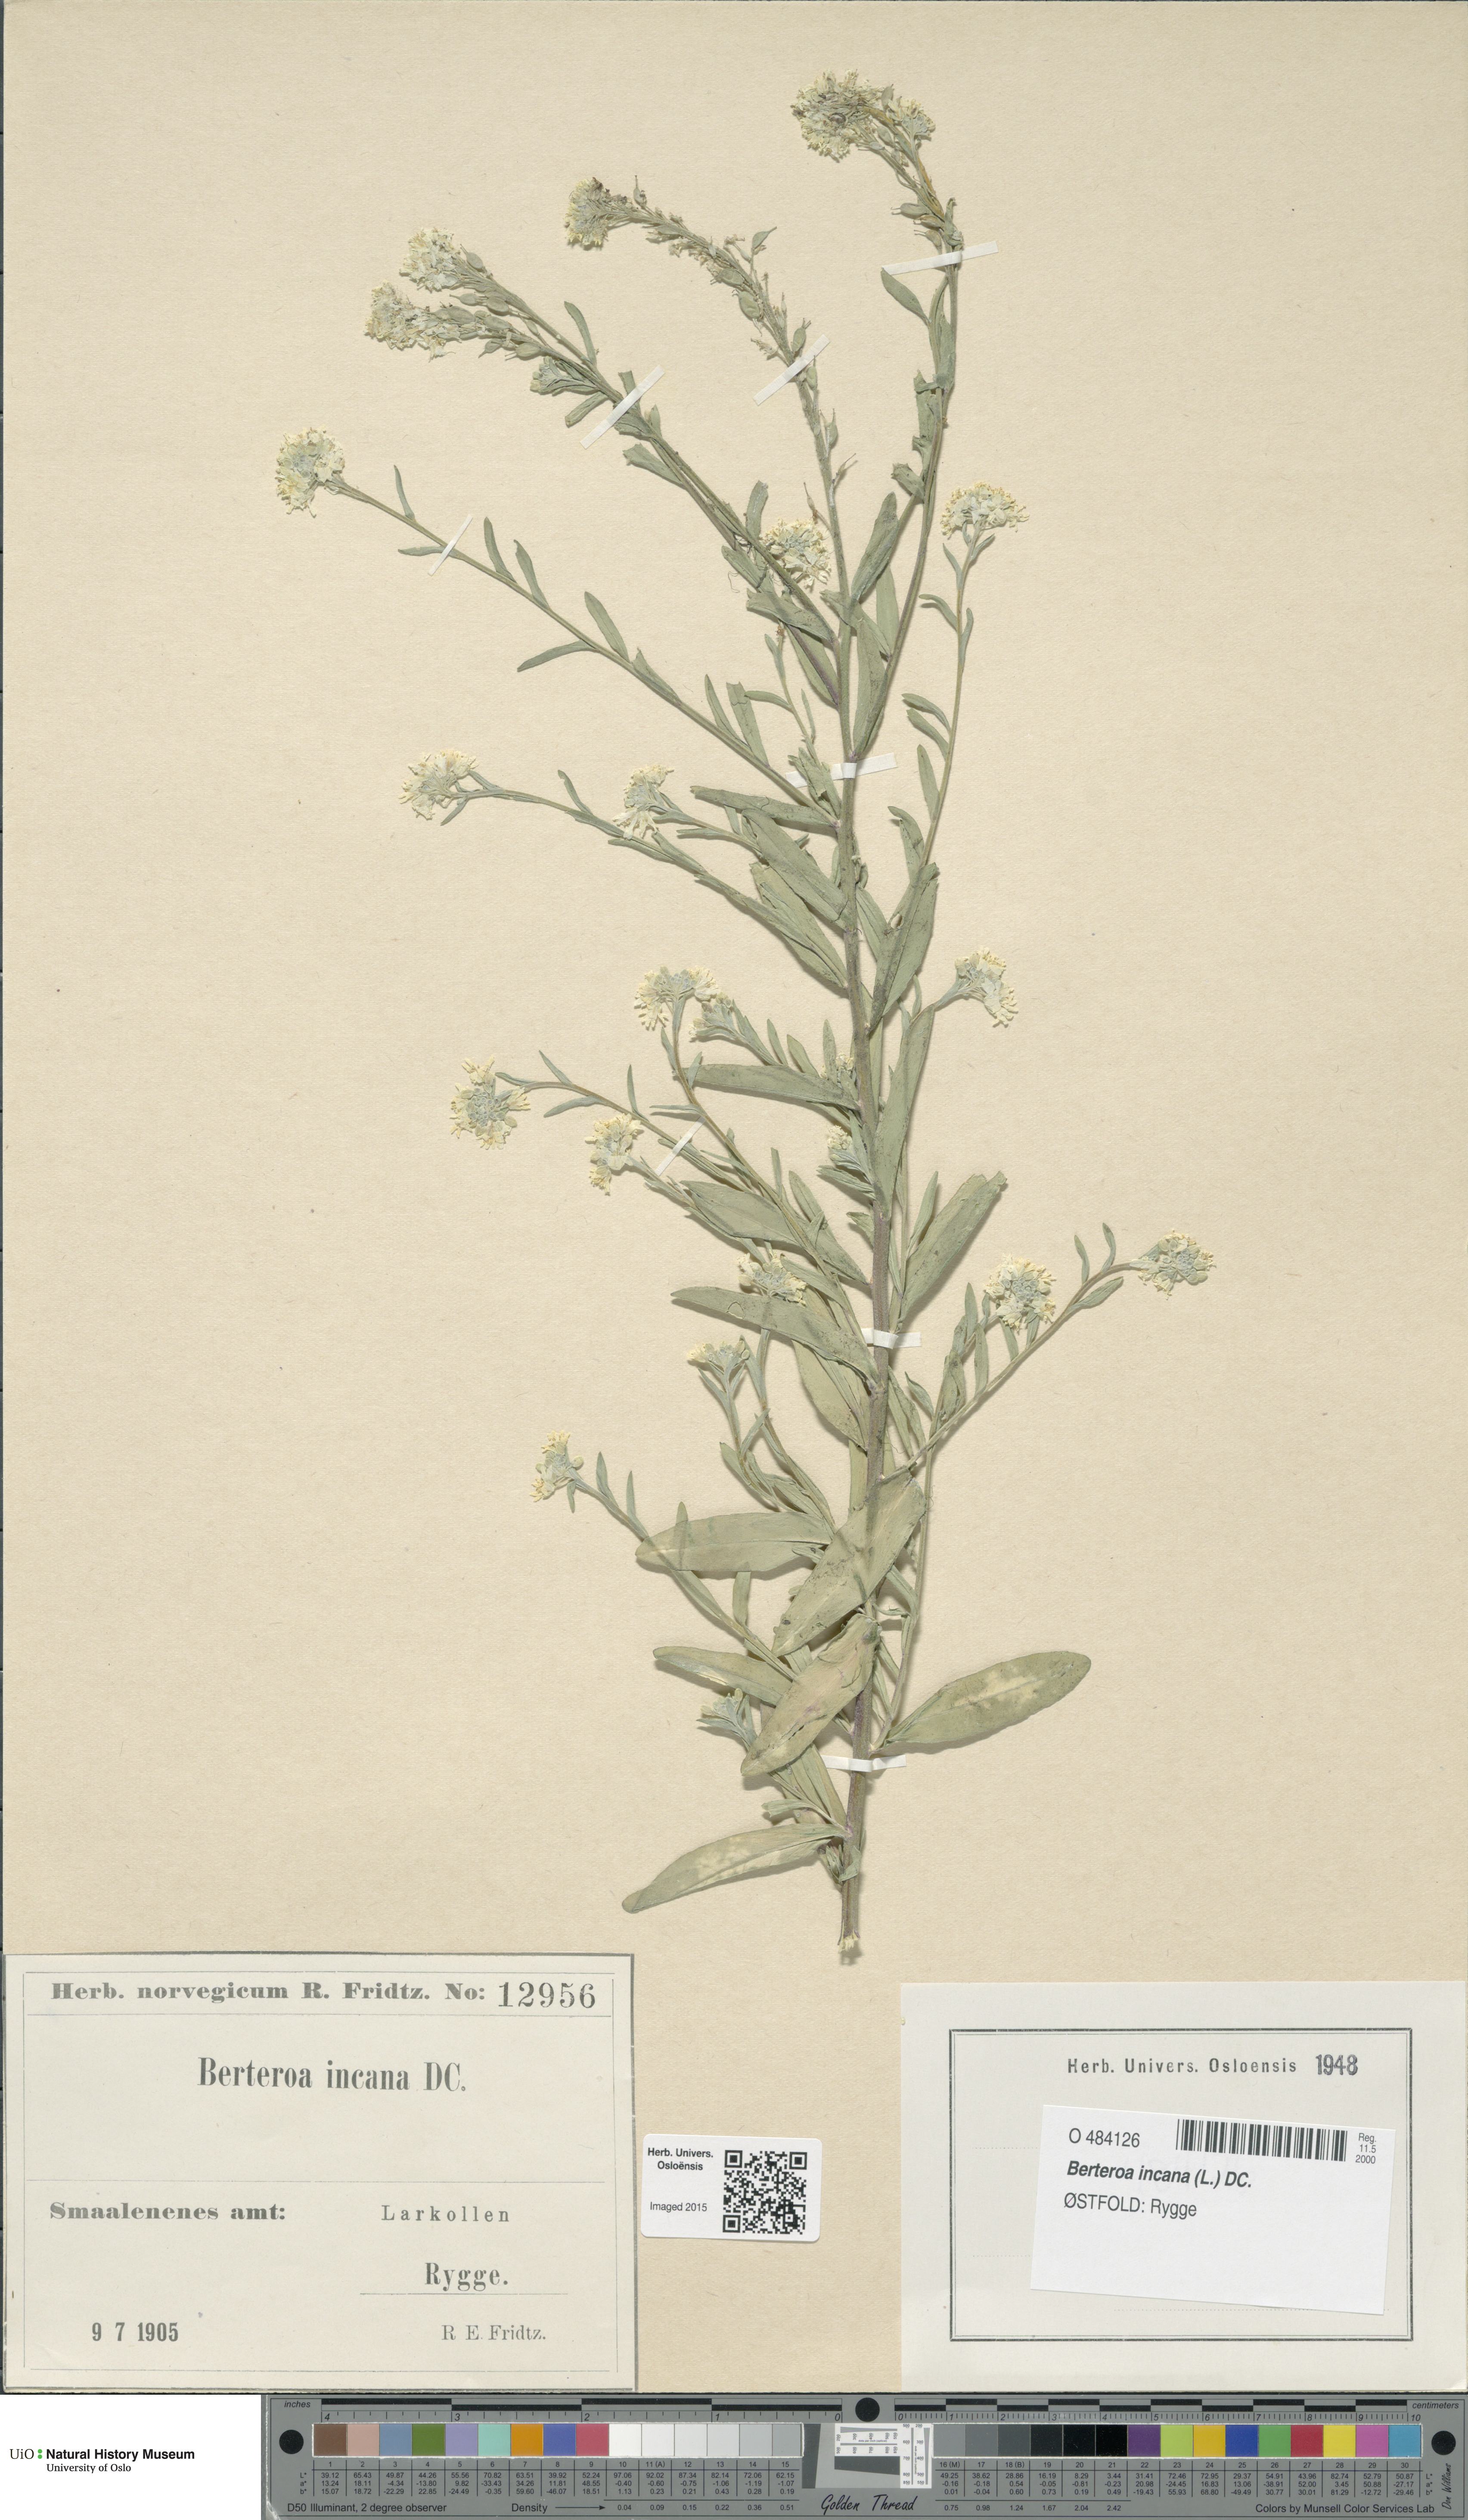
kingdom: Plantae
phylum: Tracheophyta
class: Magnoliopsida
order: Brassicales
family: Brassicaceae
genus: Berteroa
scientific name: Berteroa incana
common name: Hoary alison
